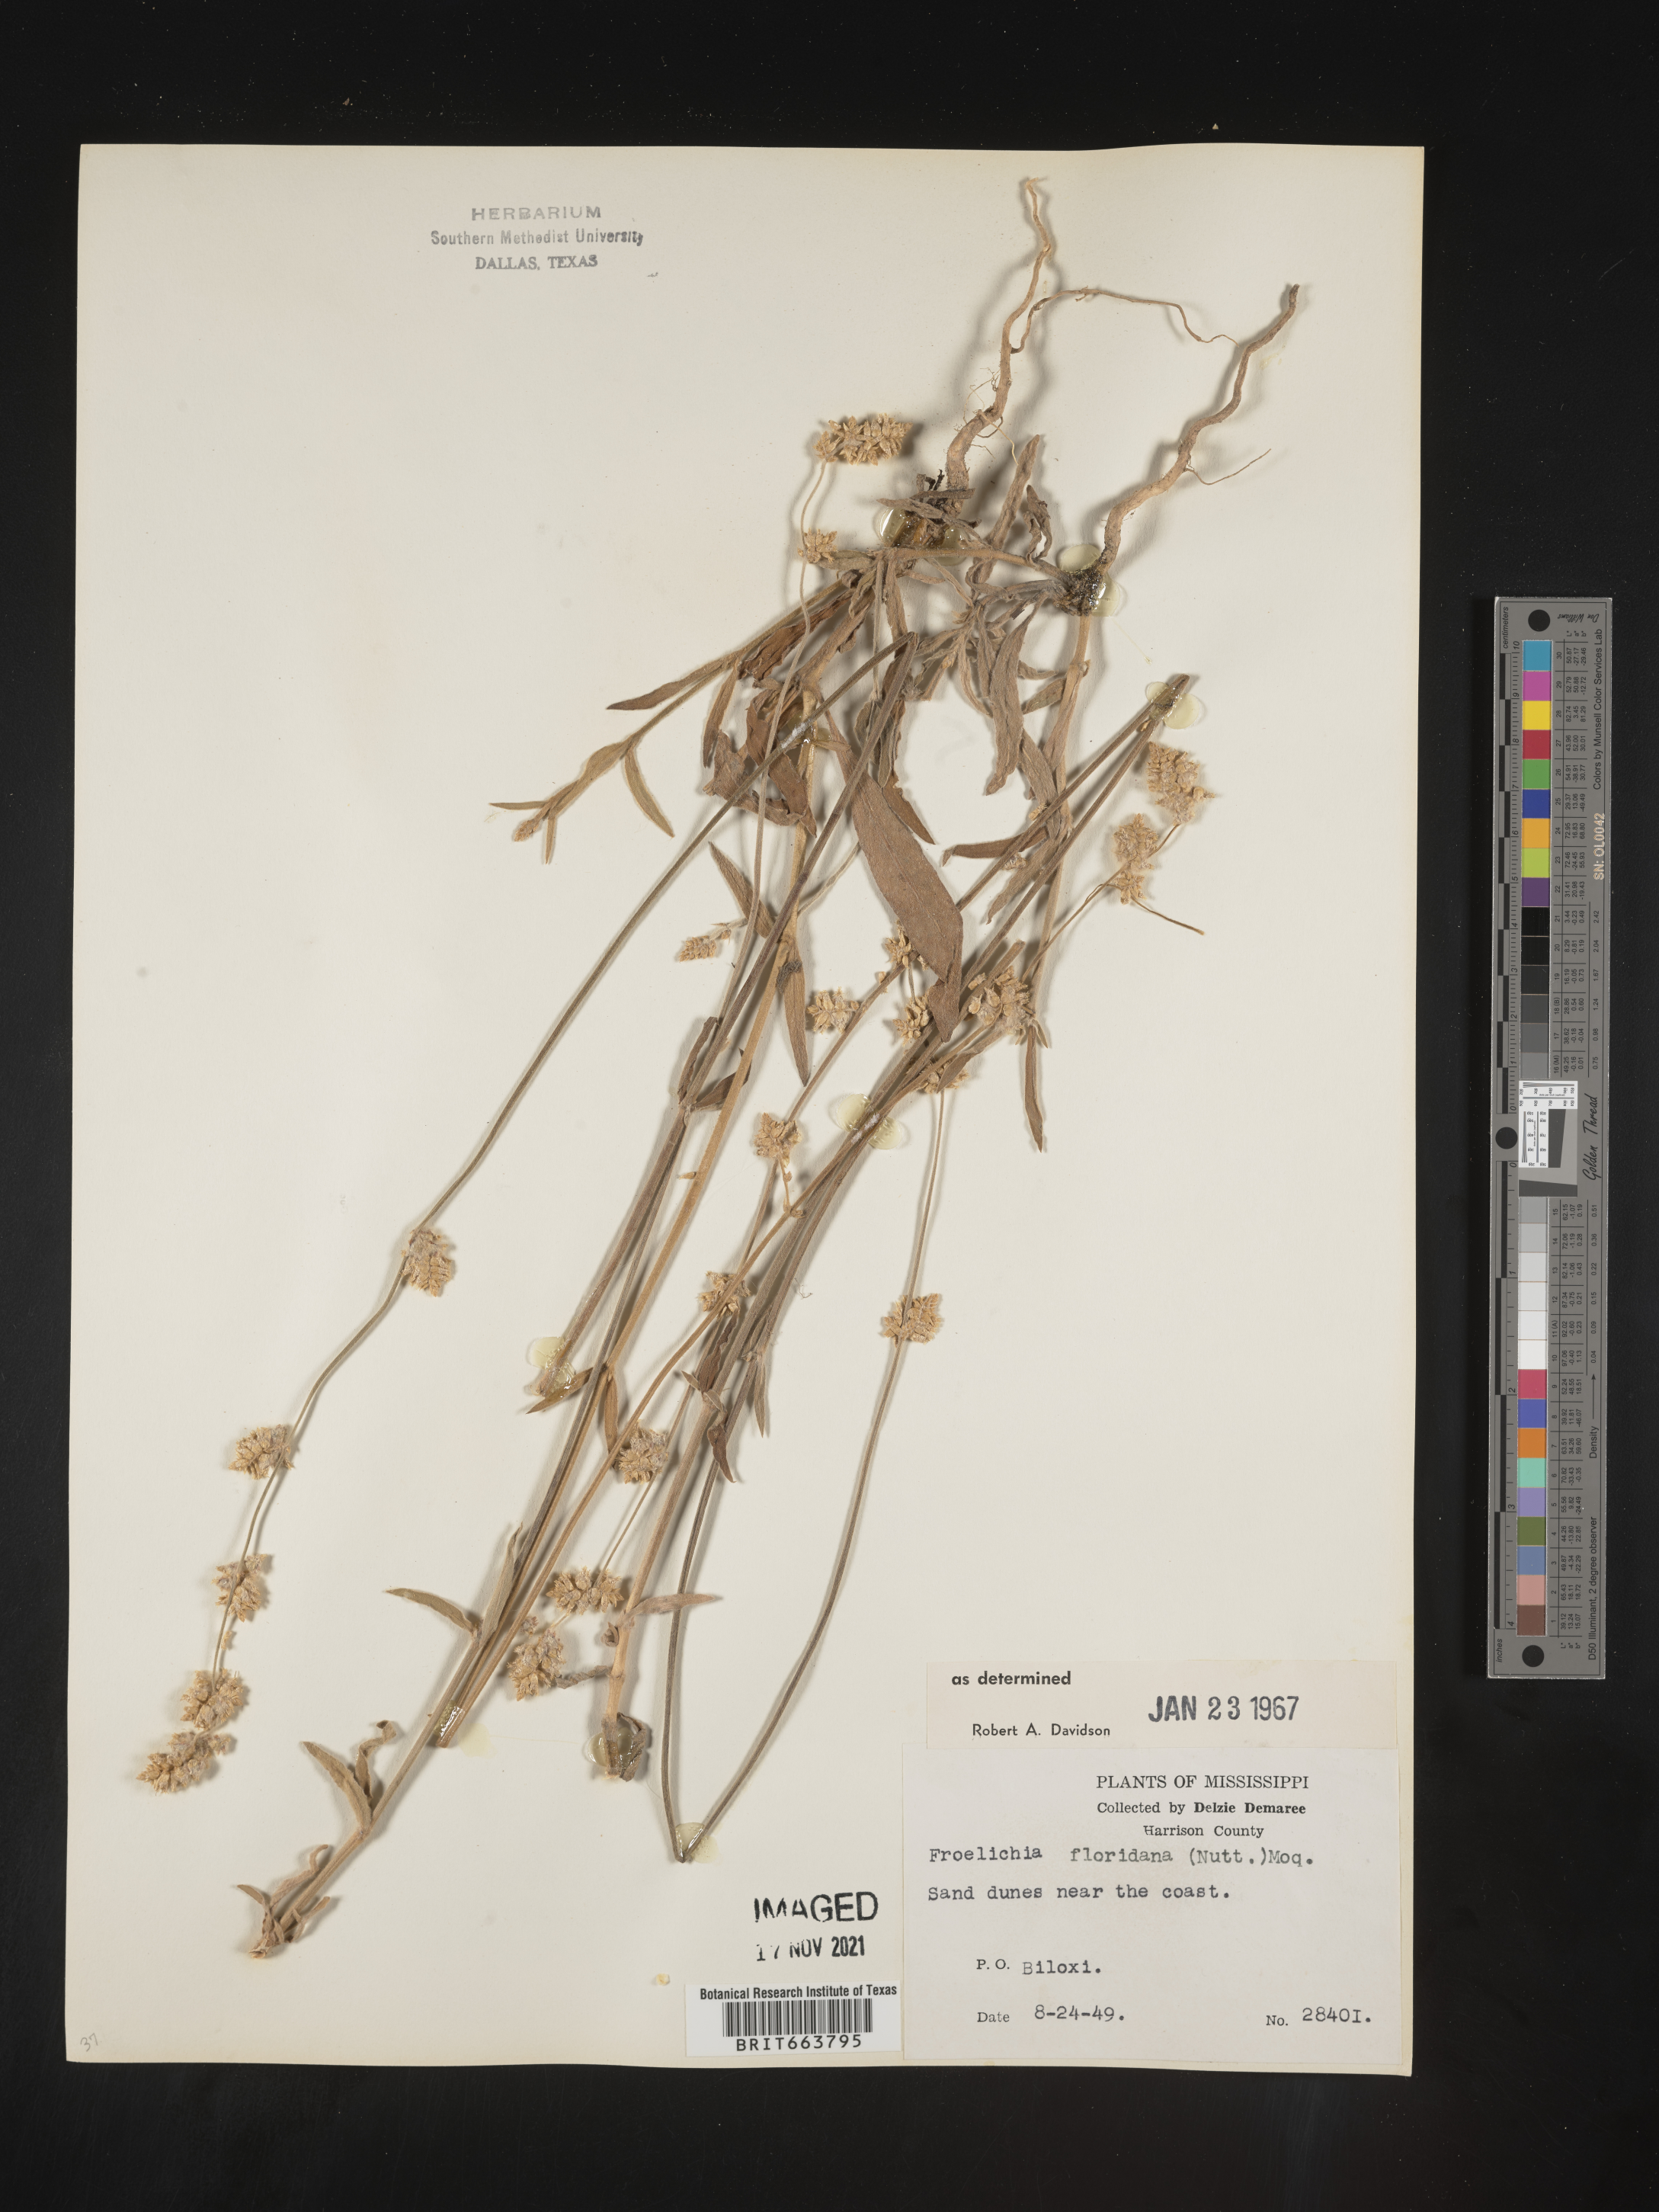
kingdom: Plantae
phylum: Tracheophyta
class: Magnoliopsida
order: Caryophyllales
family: Amaranthaceae
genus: Froelichia
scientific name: Froelichia floridana
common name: Florida snake-cotton
